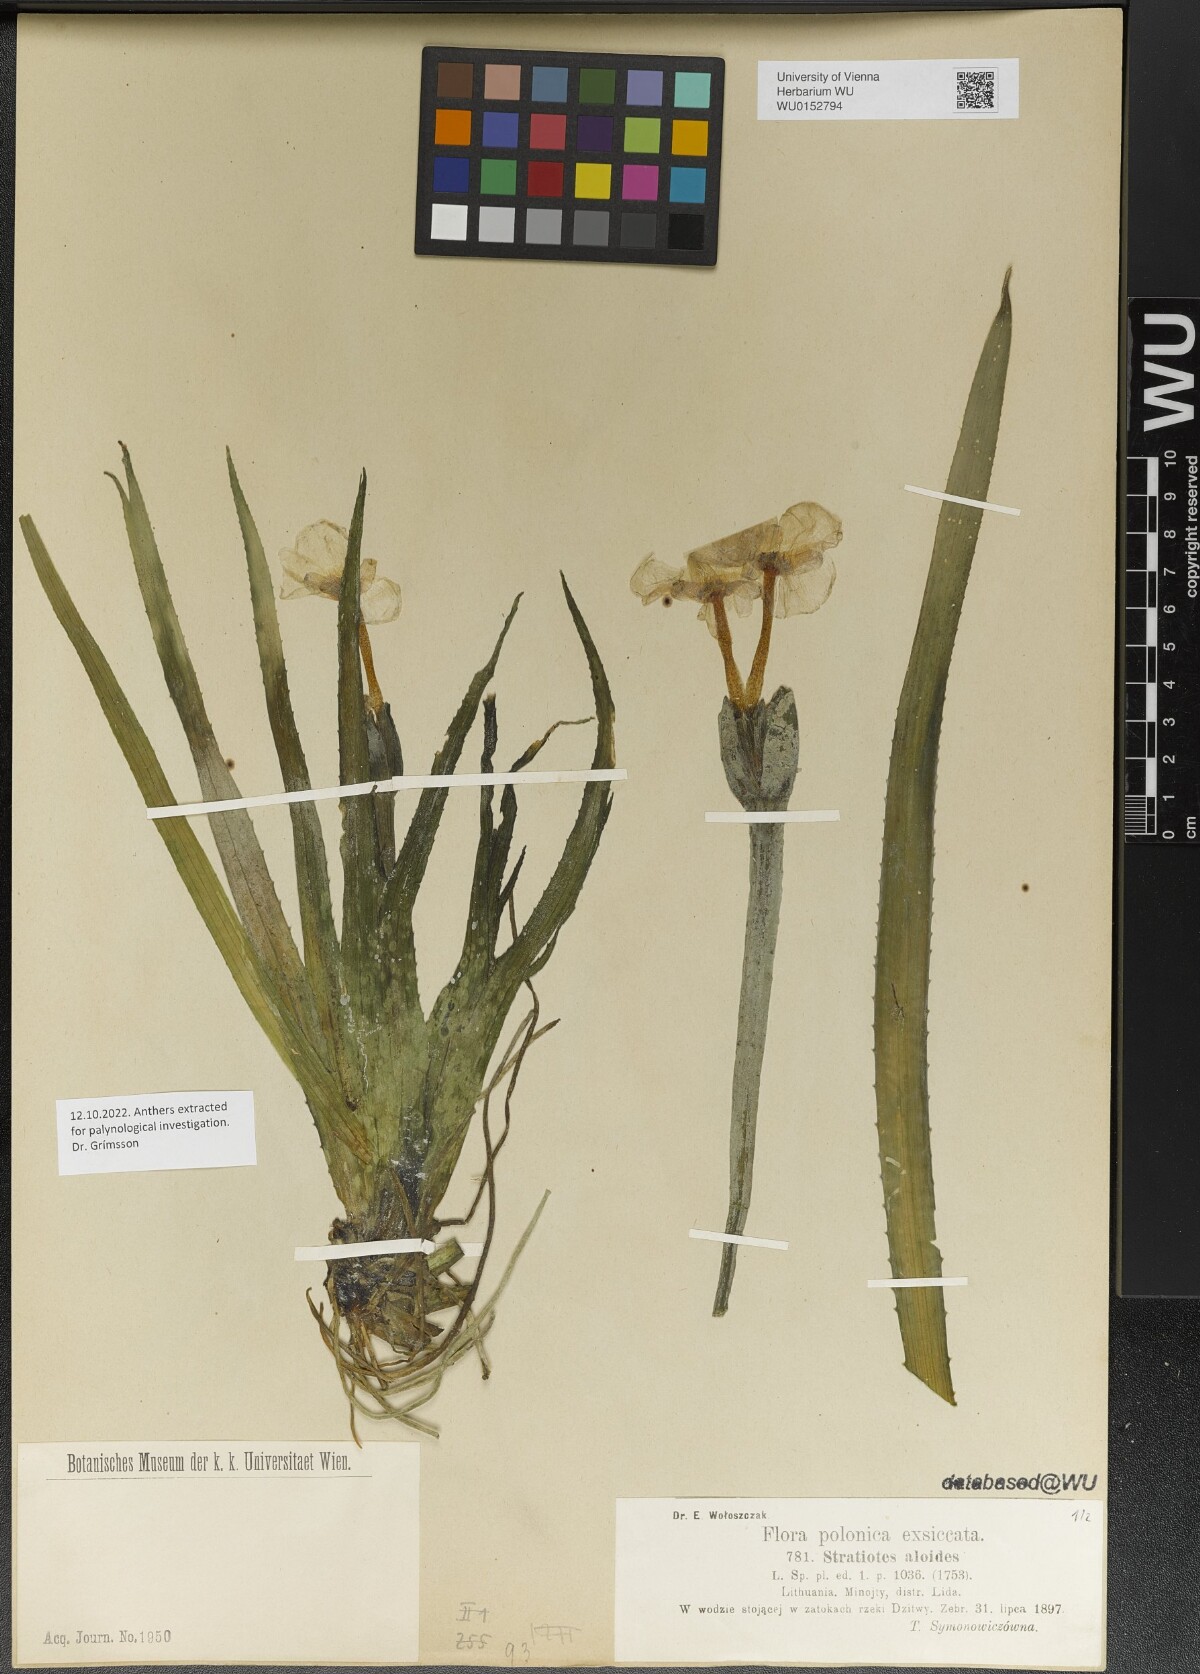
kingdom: Plantae
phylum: Tracheophyta
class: Liliopsida
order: Alismatales
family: Hydrocharitaceae
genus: Stratiotes
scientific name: Stratiotes aloides
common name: Water-soldier
